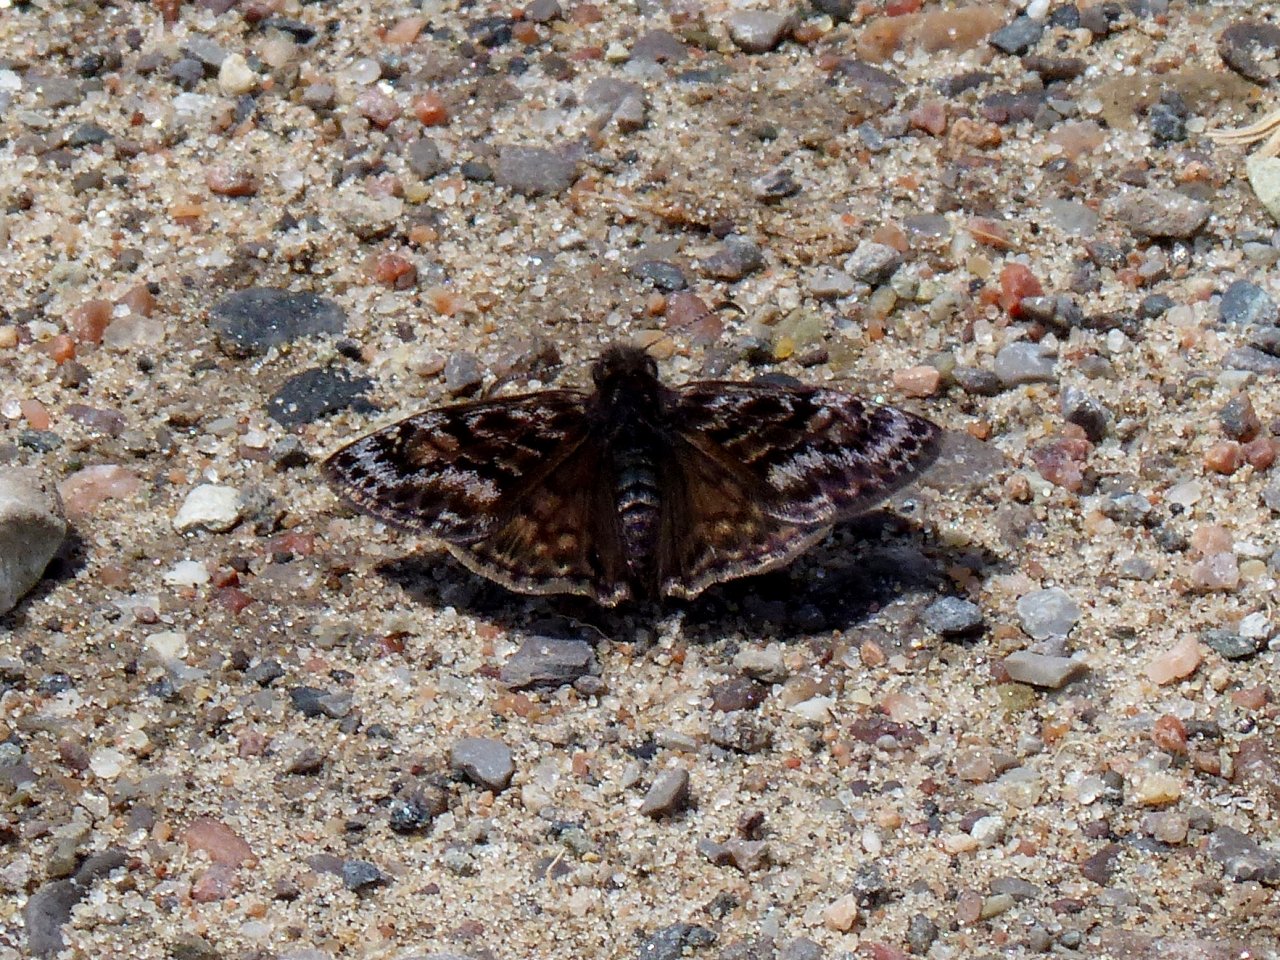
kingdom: Animalia
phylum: Arthropoda
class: Insecta
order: Lepidoptera
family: Hesperiidae
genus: Erynnis
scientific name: Erynnis martialis
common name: Mottled Duskywing
